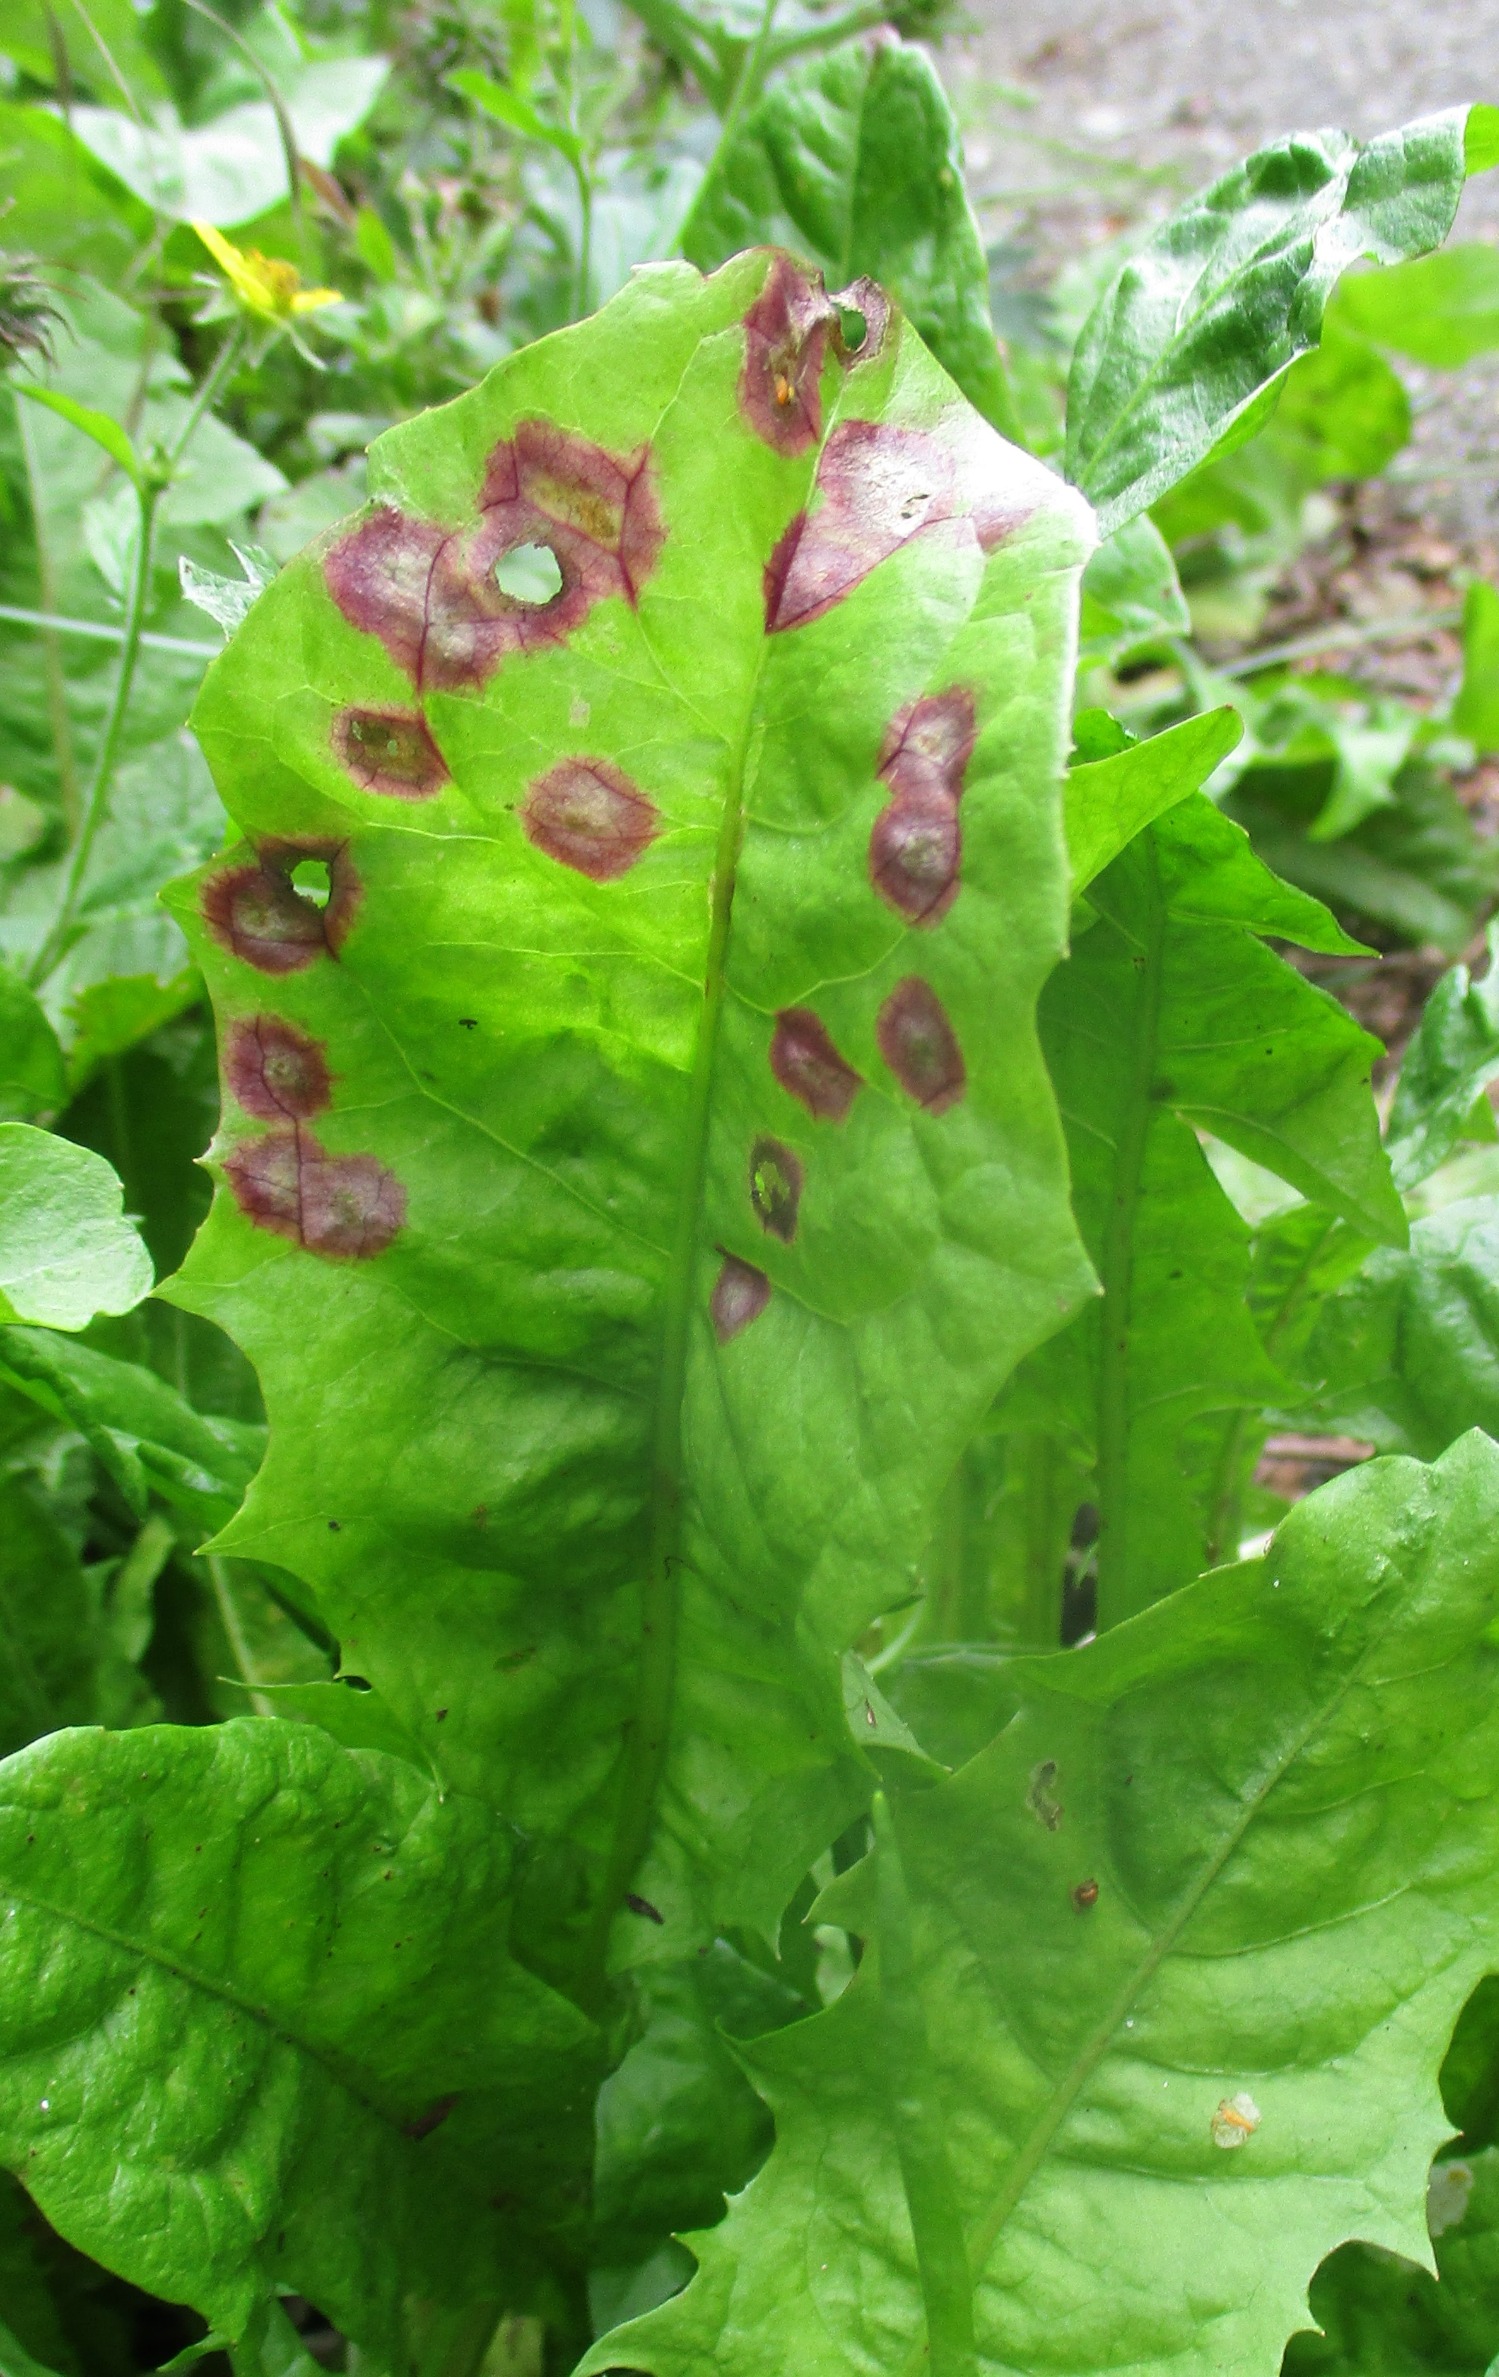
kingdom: Animalia
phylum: Arthropoda
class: Insecta
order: Diptera
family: Cecidomyiidae
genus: Cystiphora
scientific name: Cystiphora taraxaci
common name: Mælkebøttegalmyg
